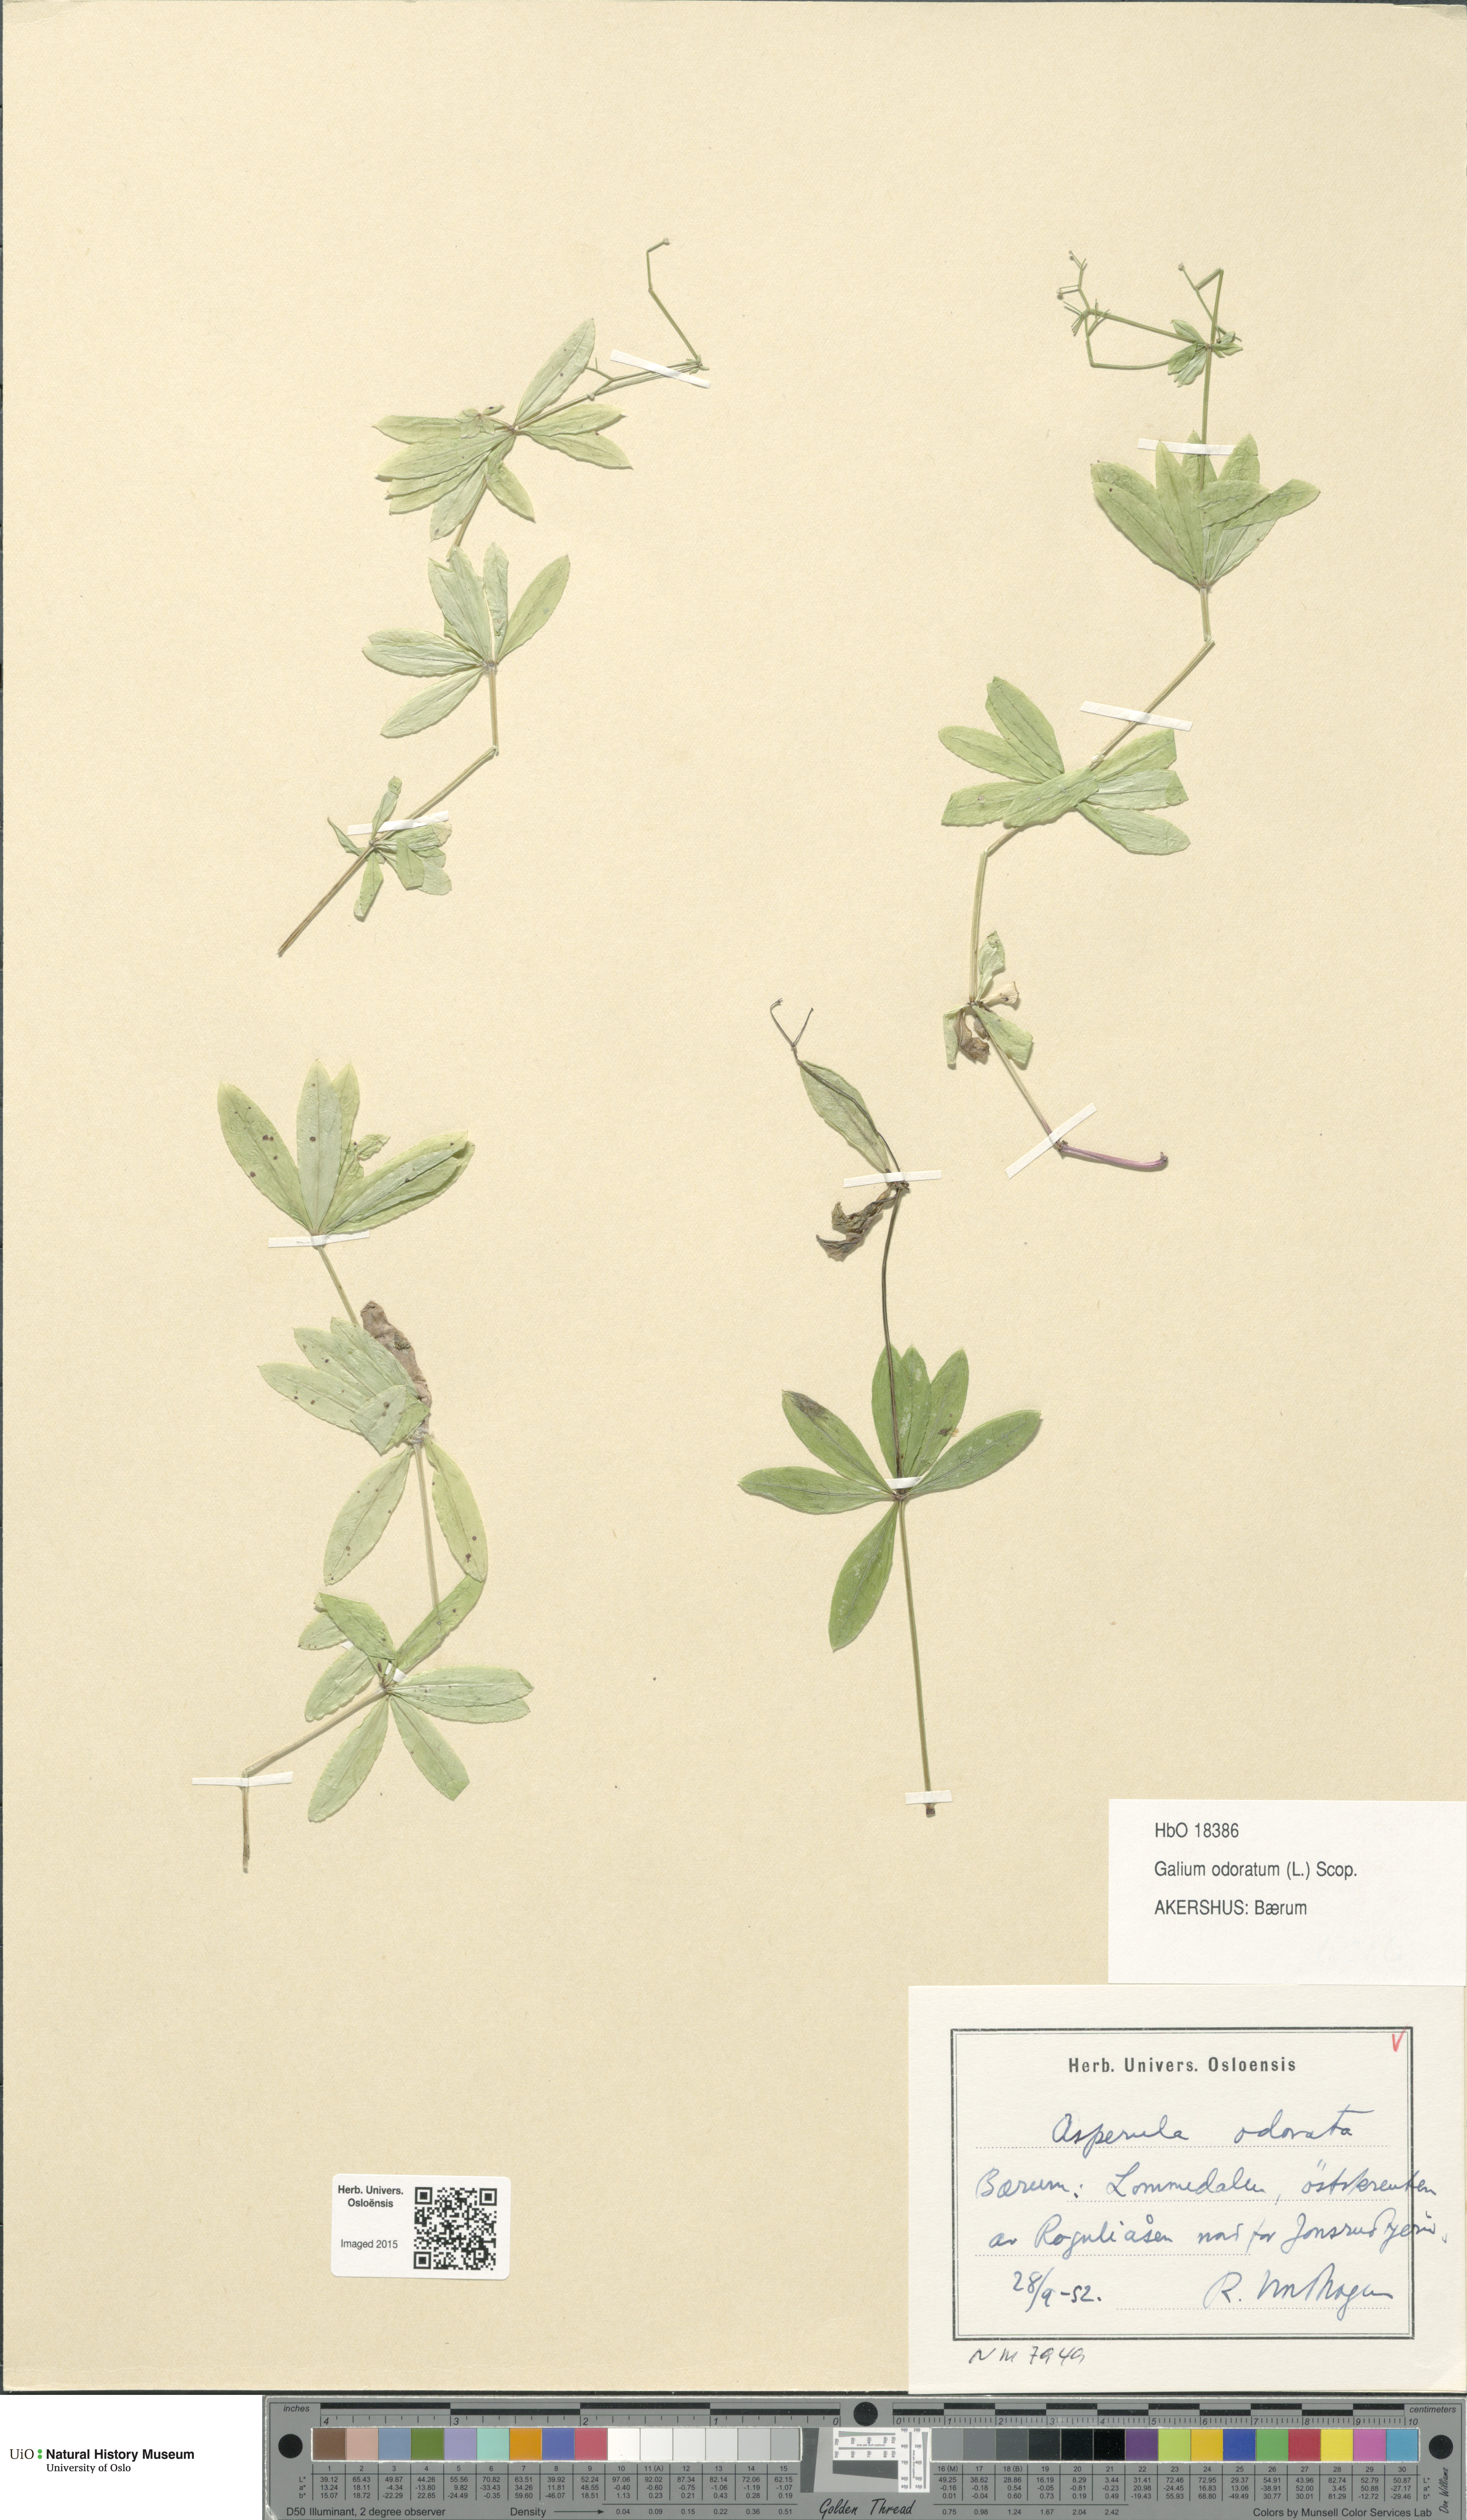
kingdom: Plantae
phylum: Tracheophyta
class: Magnoliopsida
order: Gentianales
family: Rubiaceae
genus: Galium
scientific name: Galium odoratum
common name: Sweet woodruff
